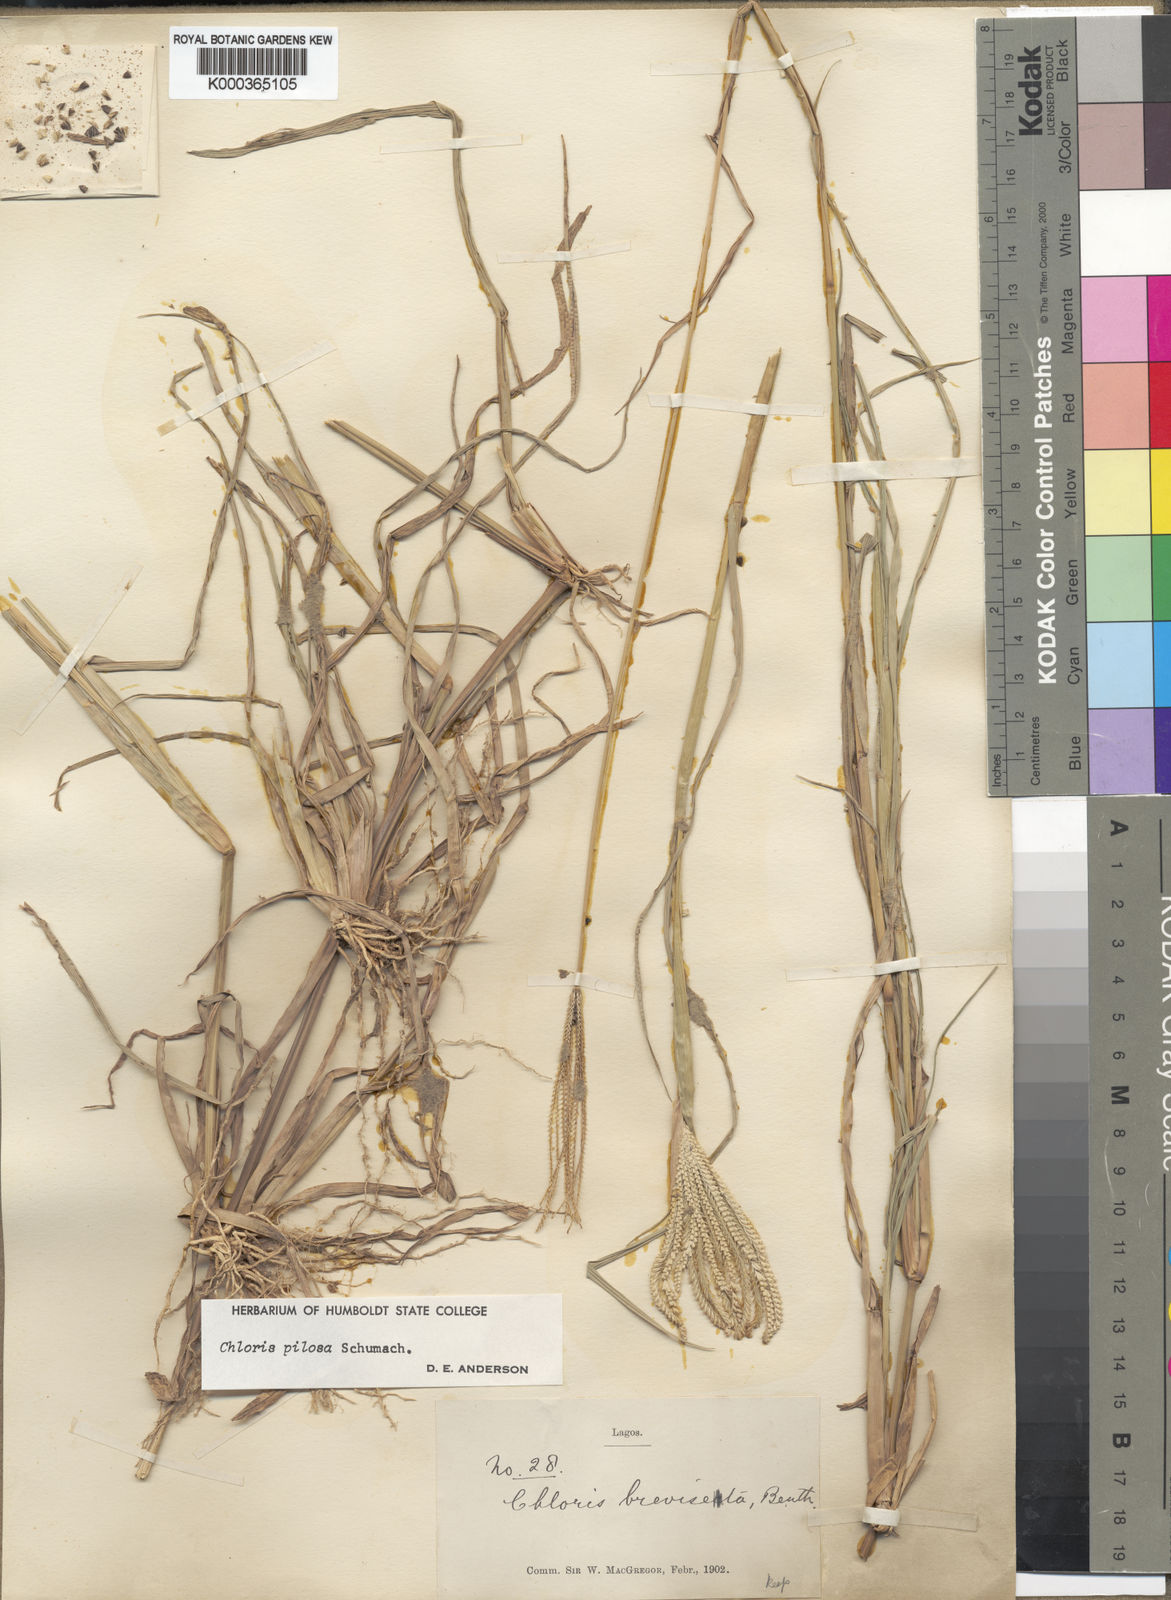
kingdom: Plantae
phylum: Tracheophyta
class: Liliopsida
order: Poales
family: Poaceae
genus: Chloris
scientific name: Chloris pilosa
